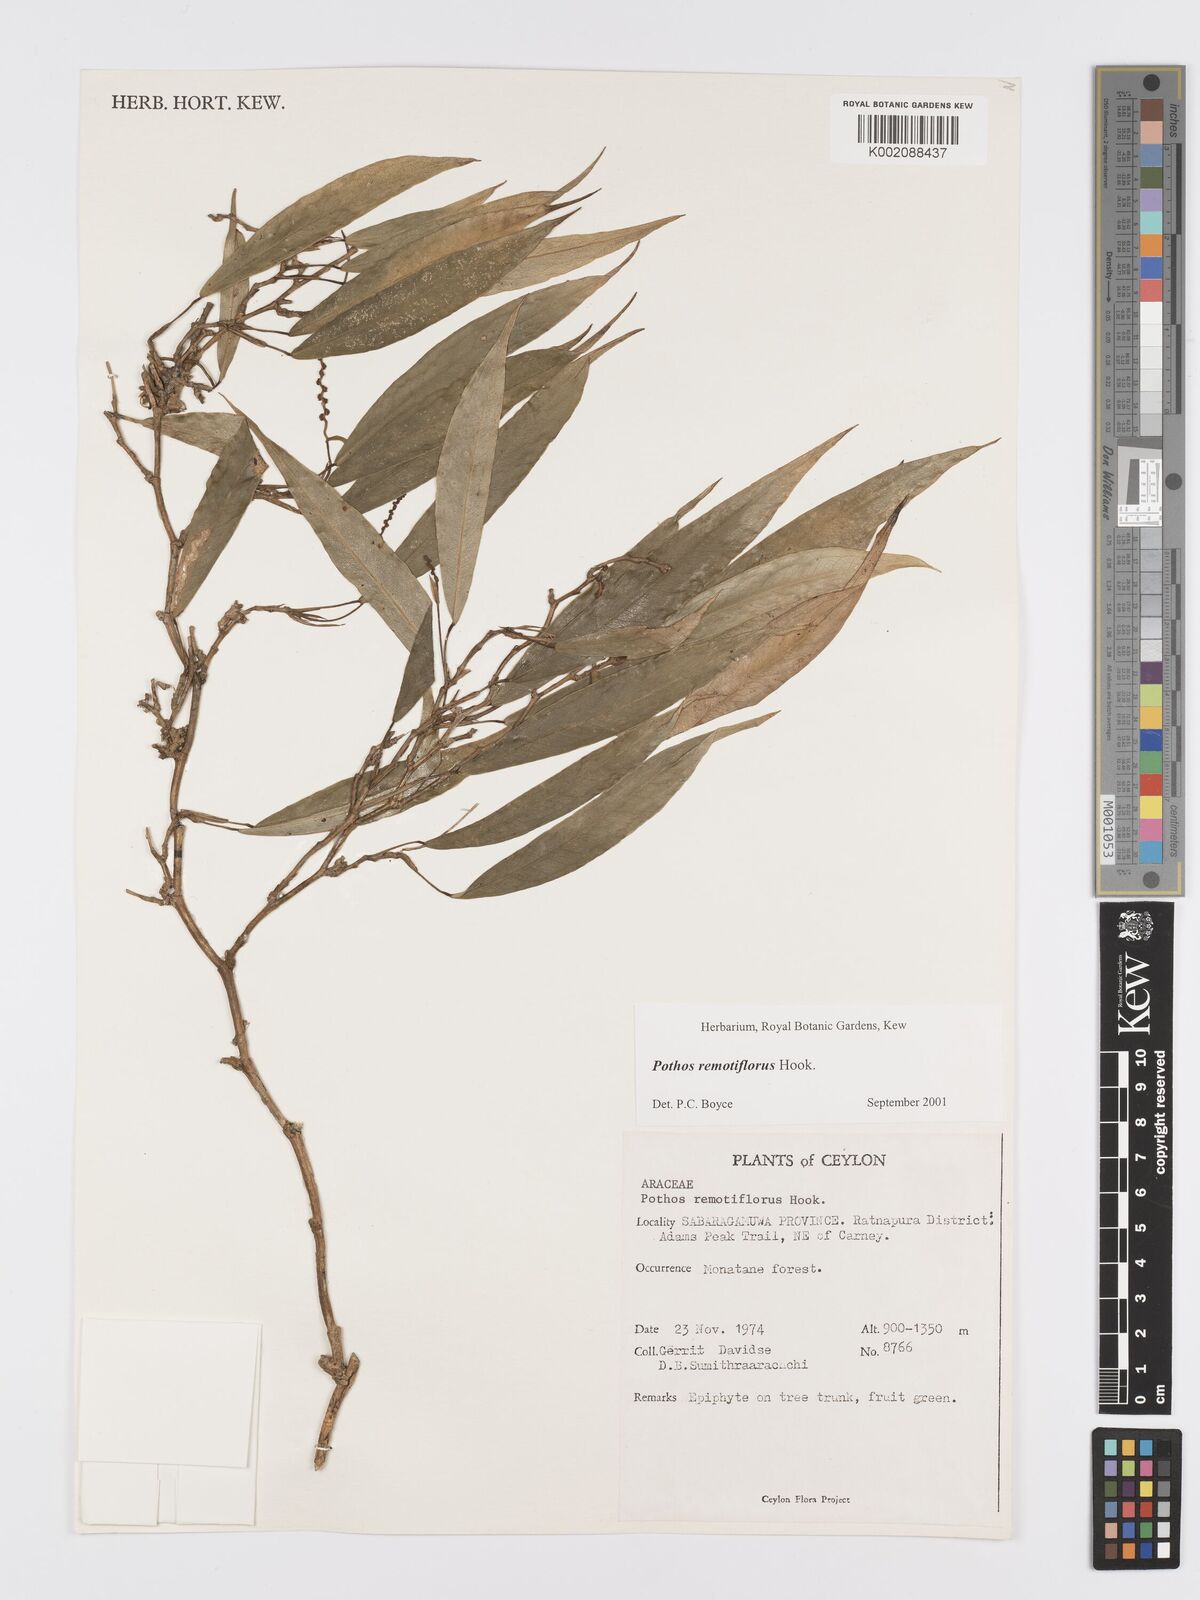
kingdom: Plantae
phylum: Tracheophyta
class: Liliopsida
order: Alismatales
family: Araceae
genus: Pothos
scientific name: Pothos remotiflorus
